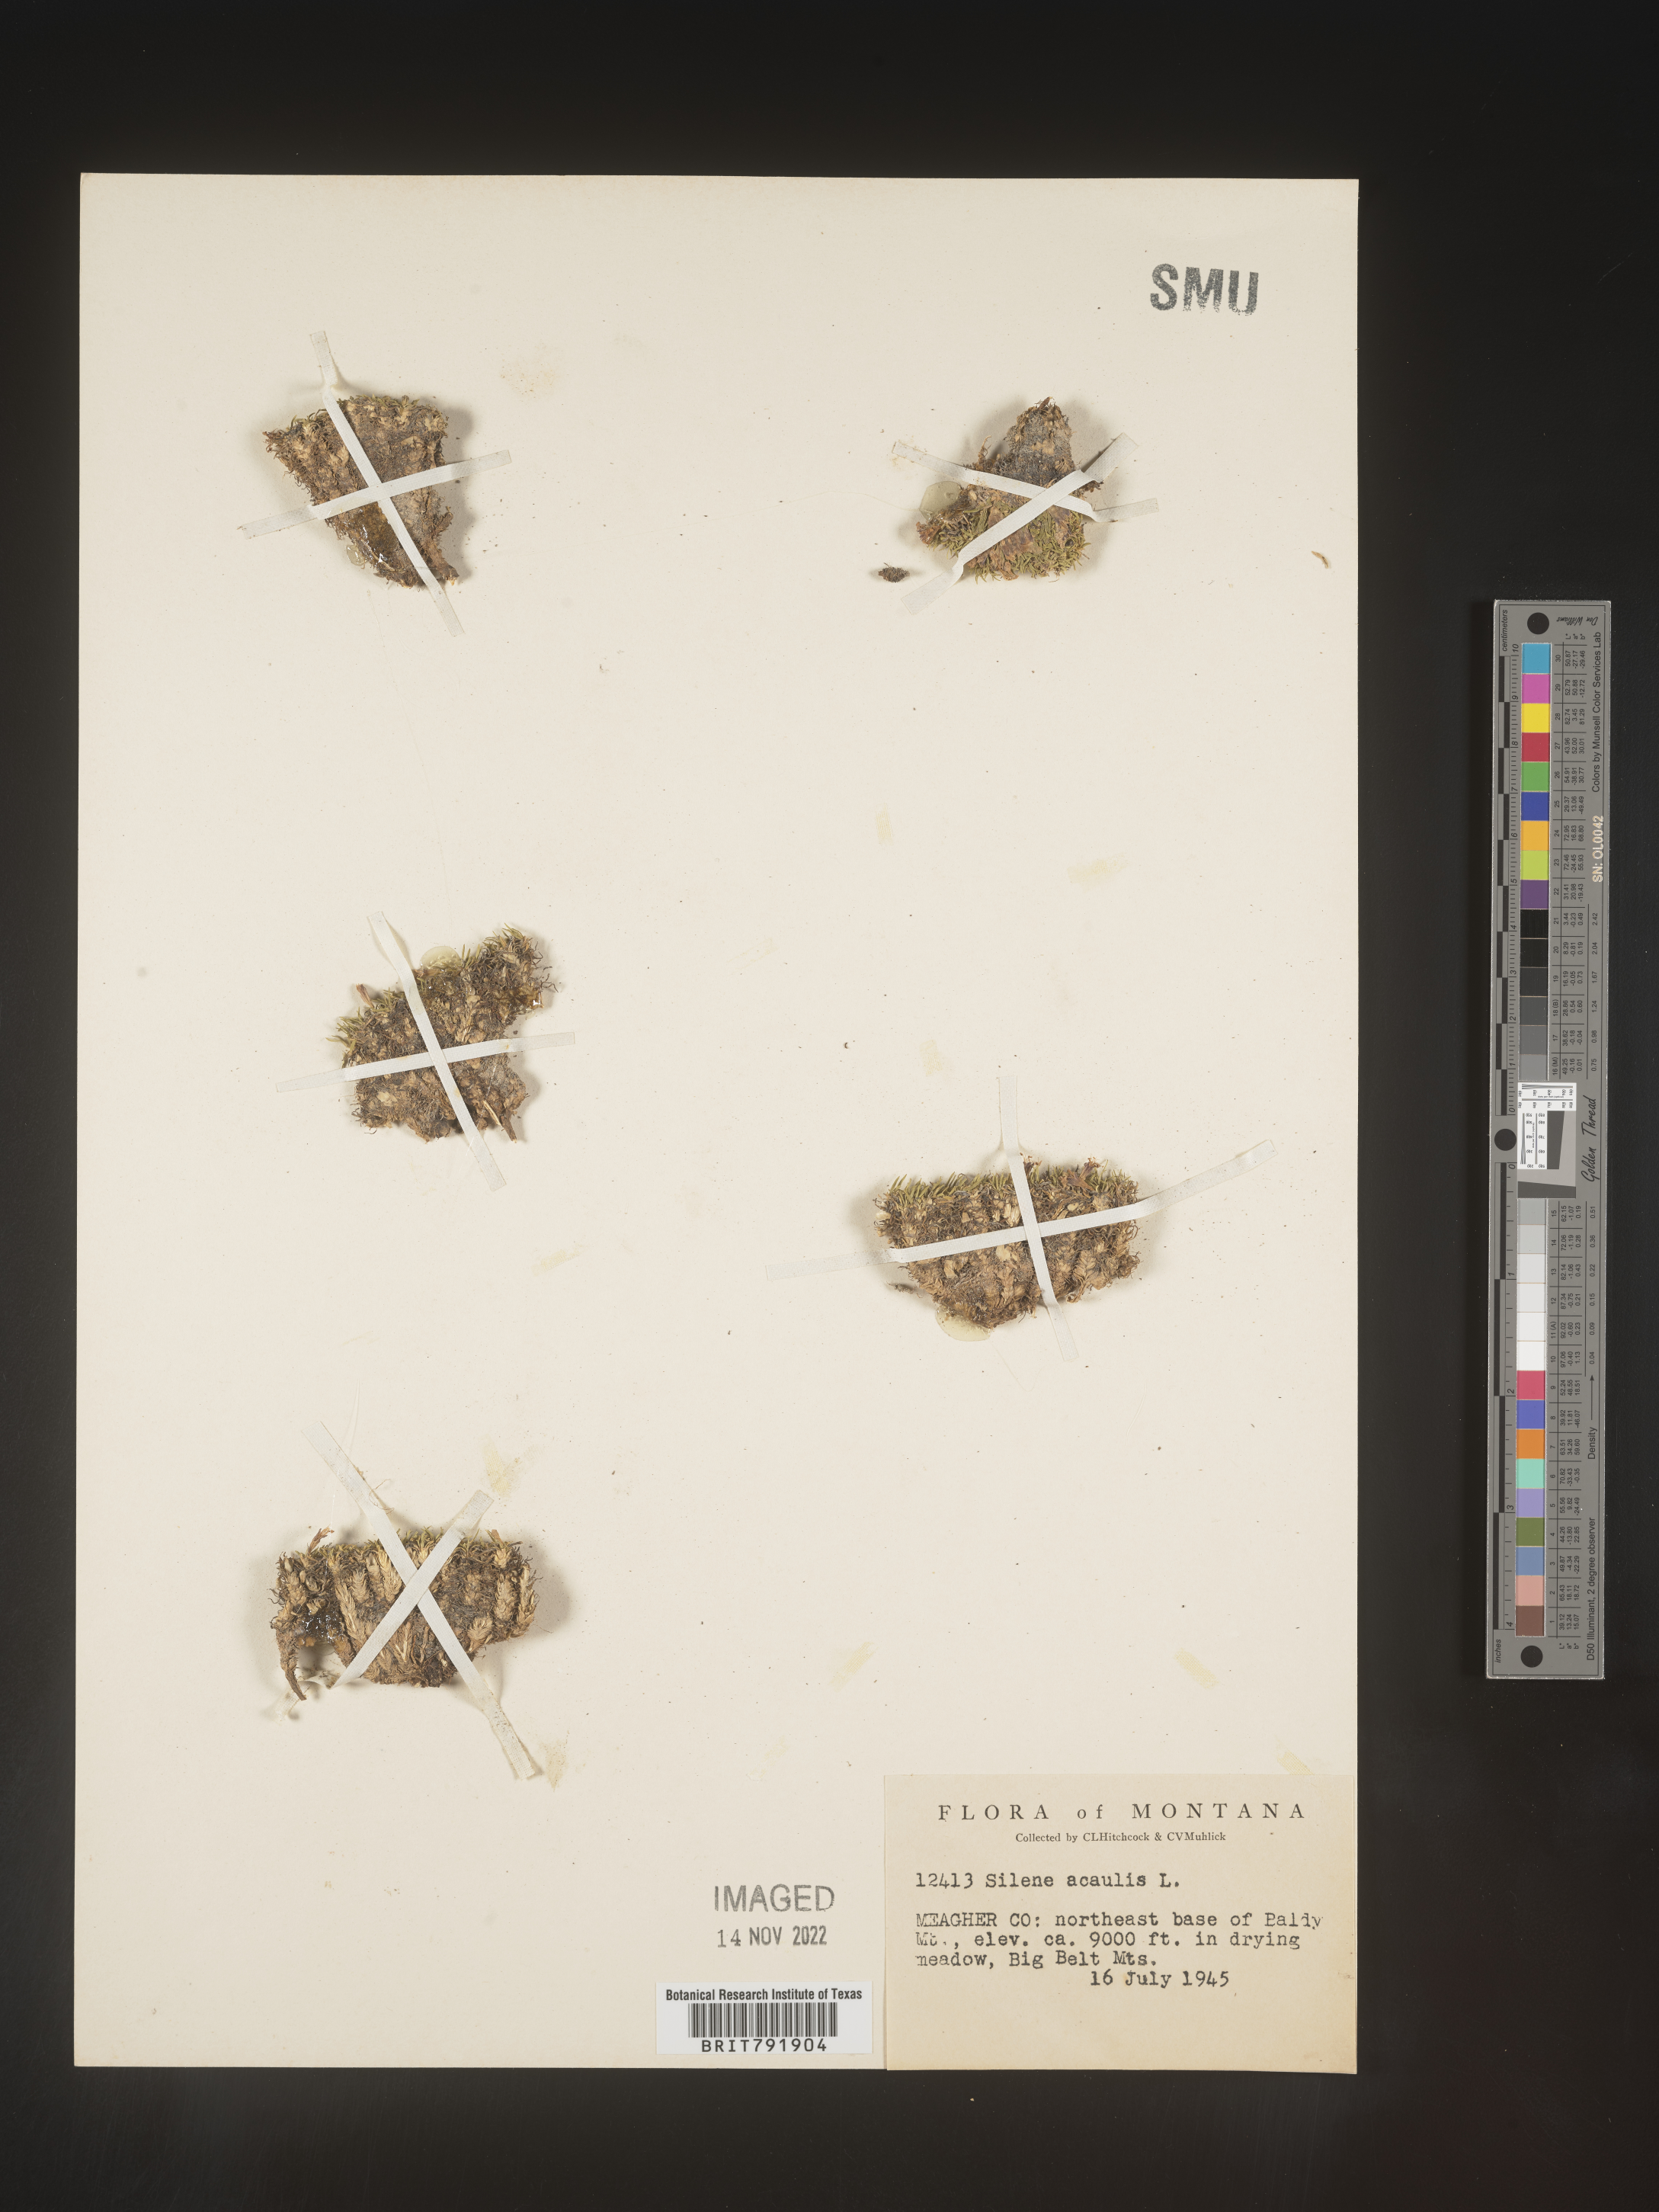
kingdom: Plantae
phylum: Tracheophyta
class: Magnoliopsida
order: Caryophyllales
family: Caryophyllaceae
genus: Silene
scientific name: Silene acaulis
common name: Moss campion
